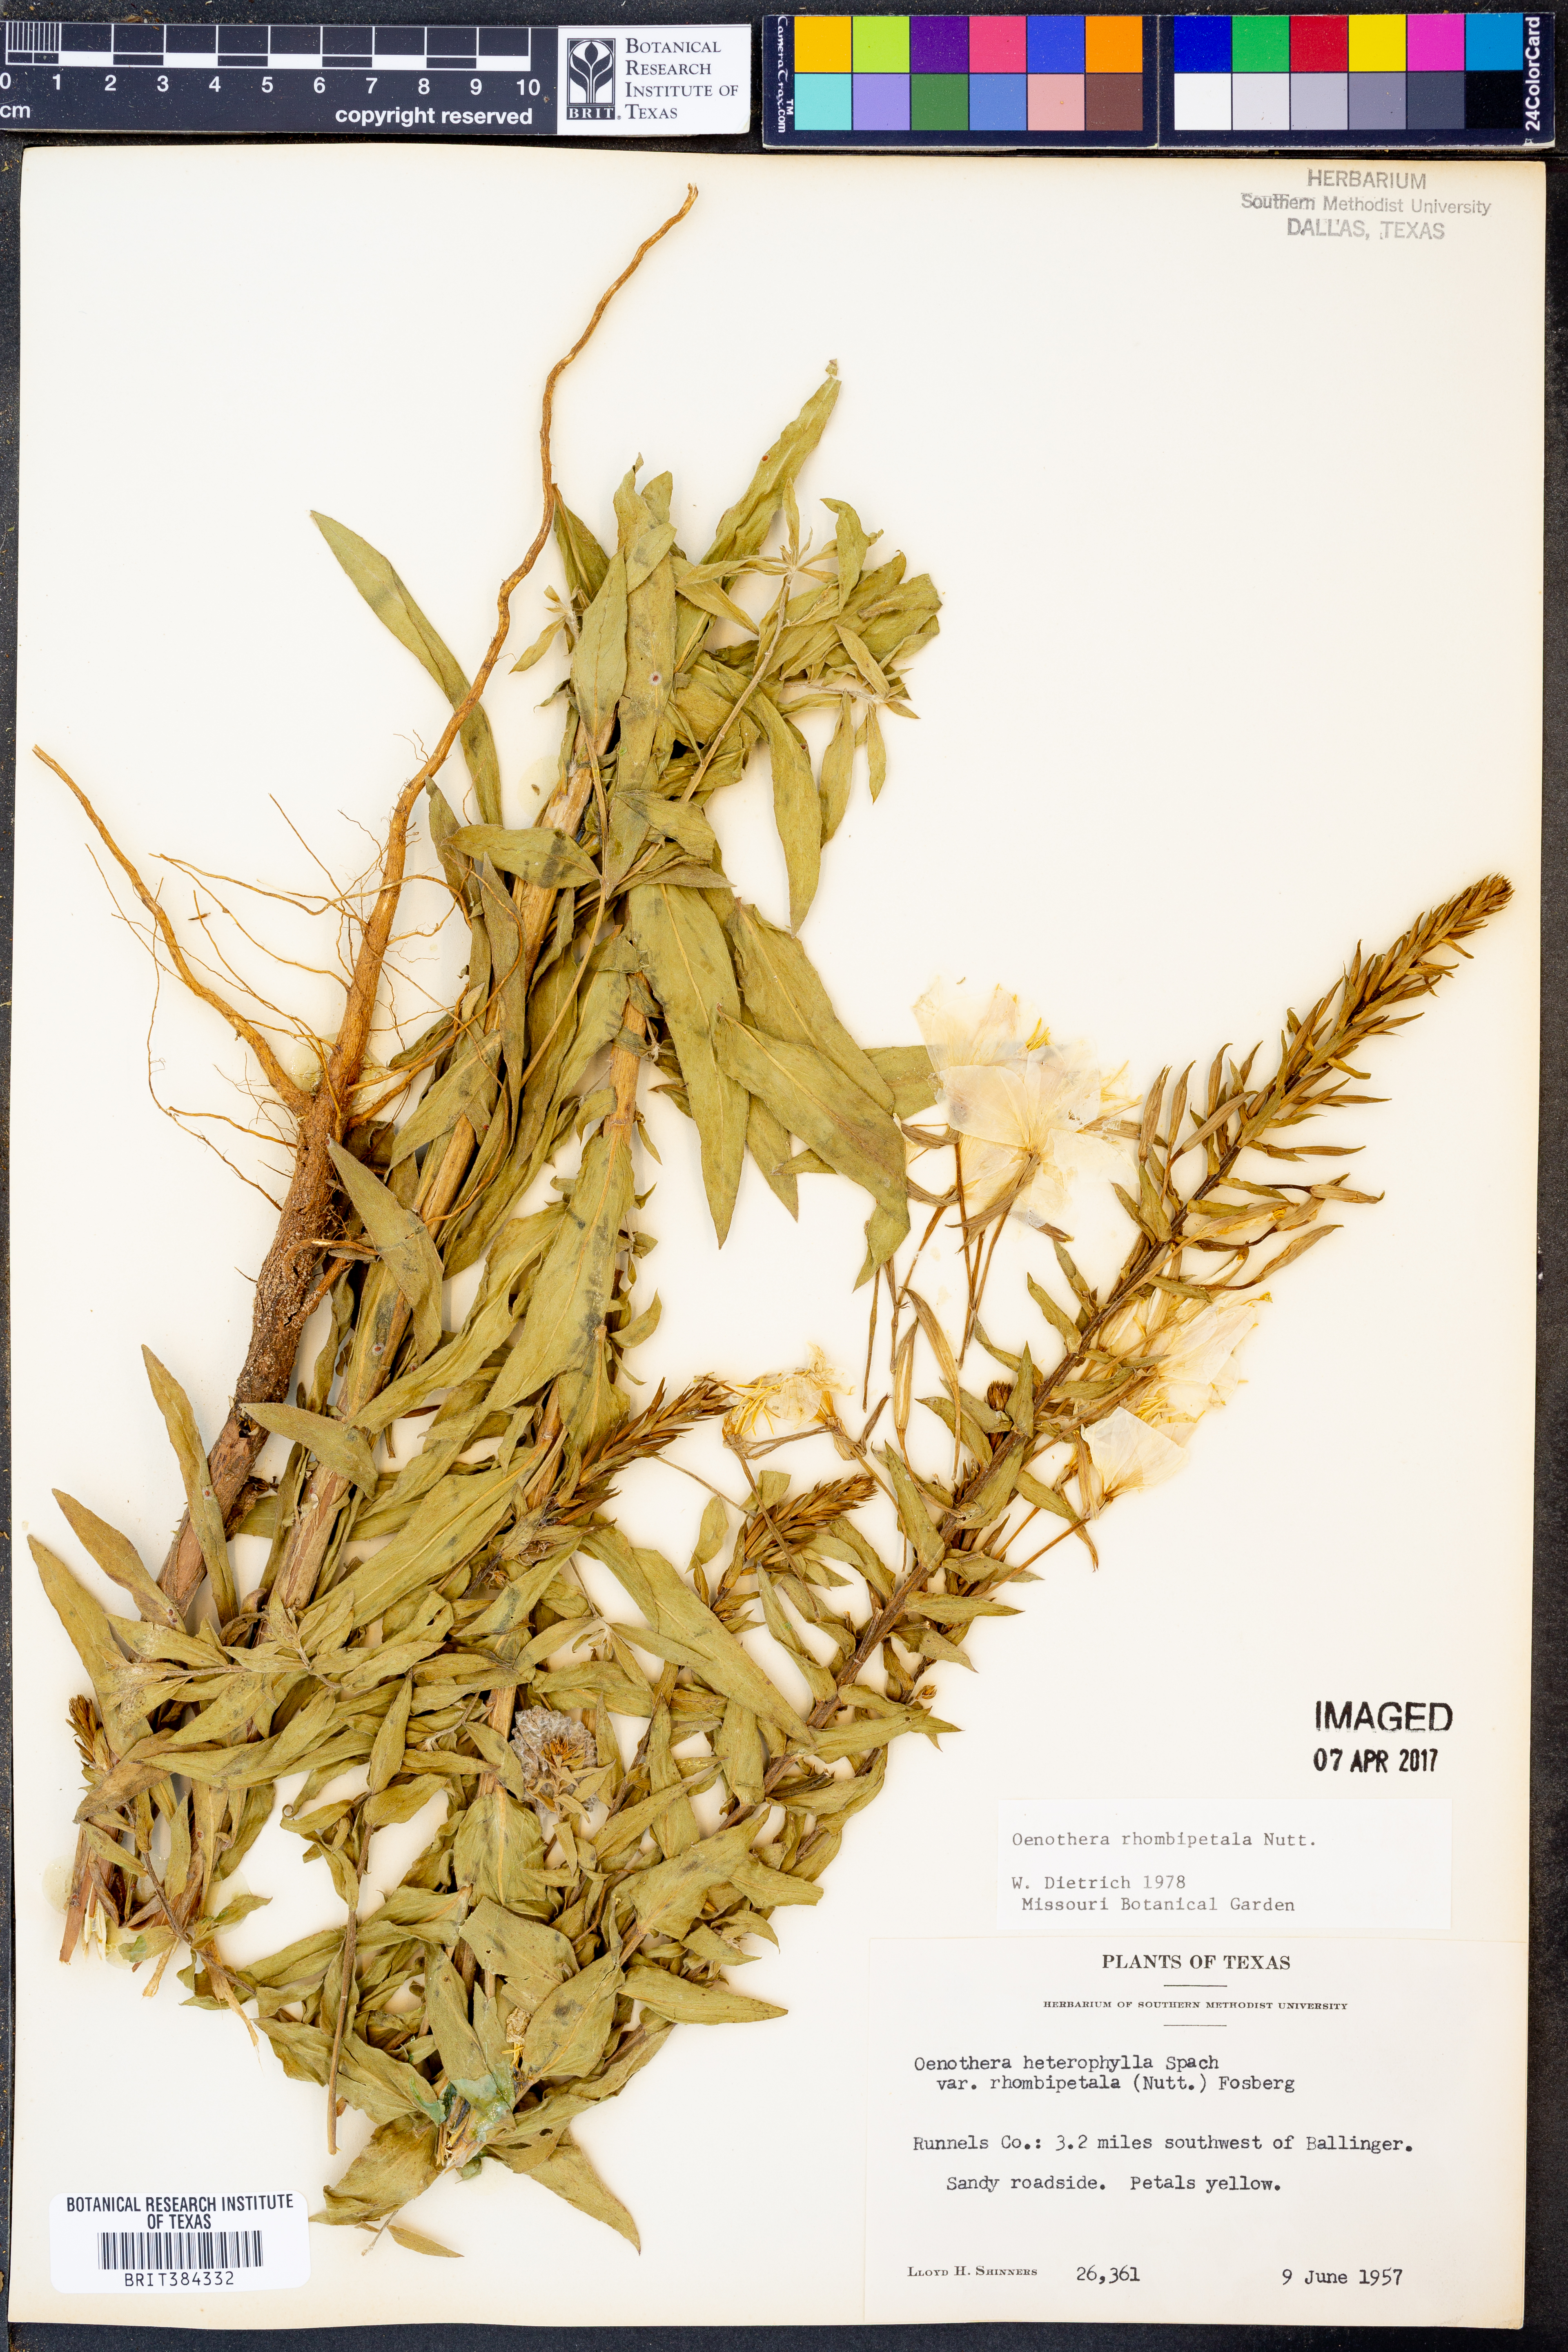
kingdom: Plantae
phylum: Tracheophyta
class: Magnoliopsida
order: Myrtales
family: Onagraceae
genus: Oenothera
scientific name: Oenothera rhombipetala
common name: Four-points evening-primrose
